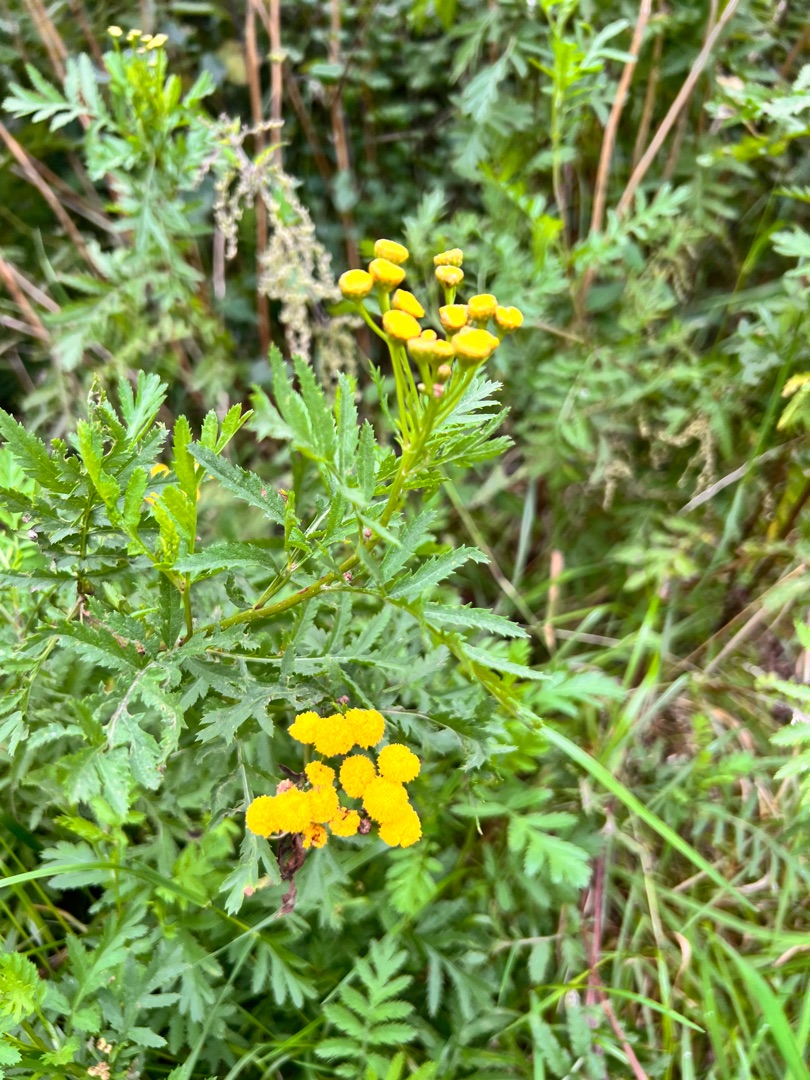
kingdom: Plantae
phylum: Tracheophyta
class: Magnoliopsida
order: Asterales
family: Asteraceae
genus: Tanacetum
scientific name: Tanacetum vulgare
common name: Rejnfan
